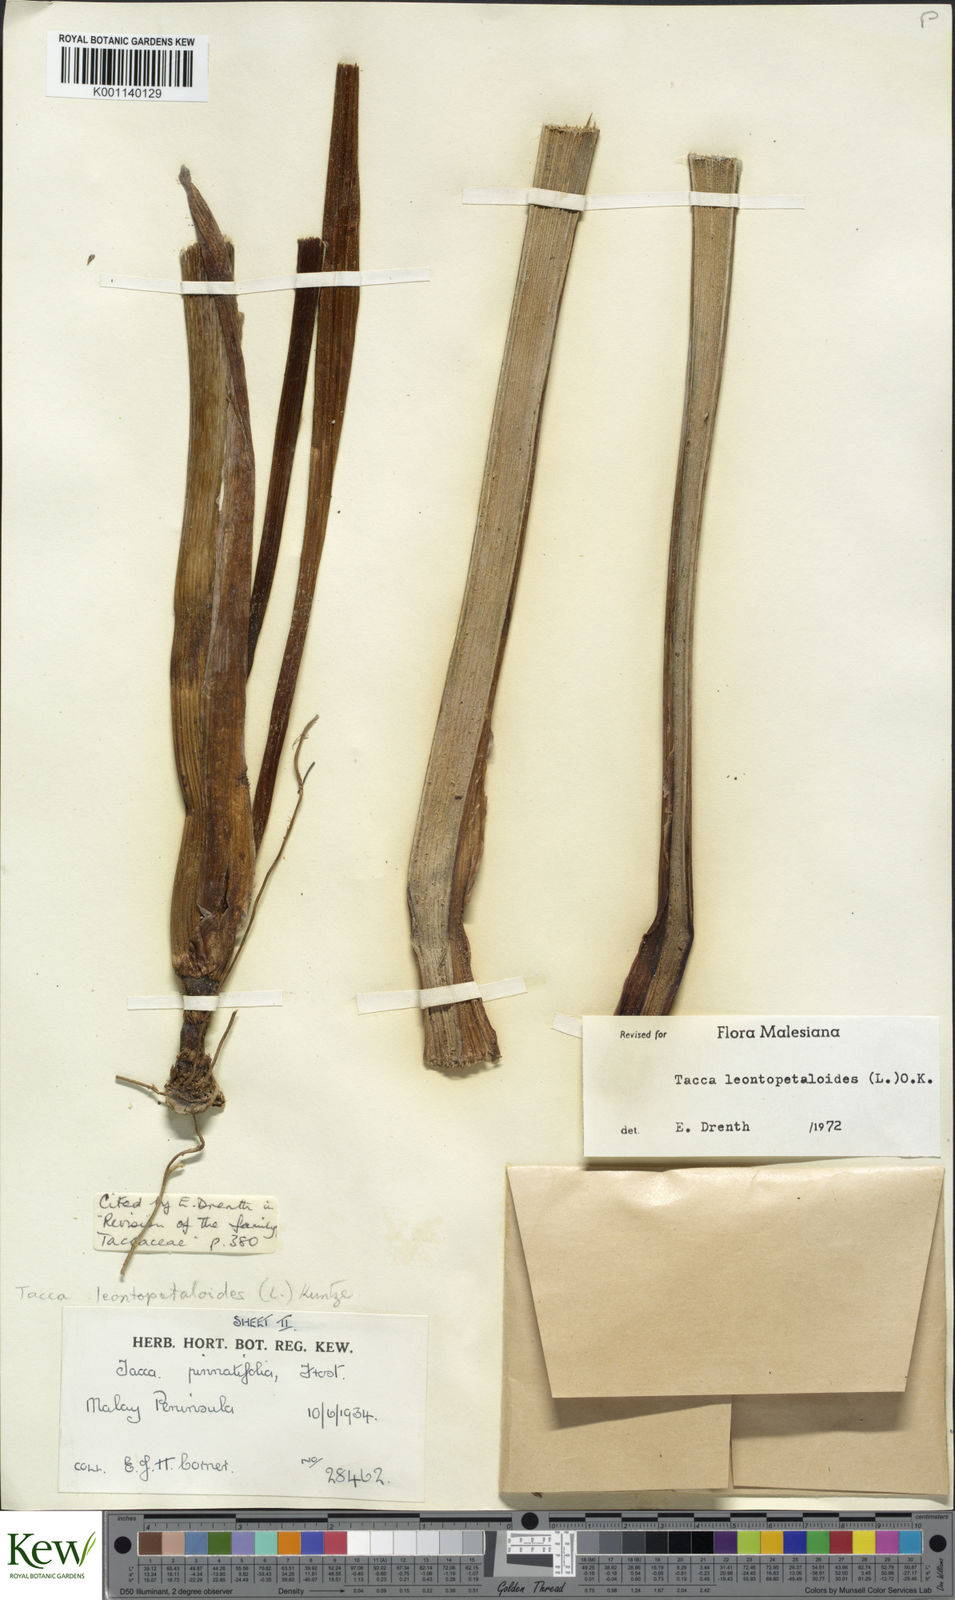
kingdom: Plantae
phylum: Tracheophyta
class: Liliopsida
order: Dioscoreales
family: Dioscoreaceae
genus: Tacca
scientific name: Tacca leontopetaloides
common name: Arrowroot
